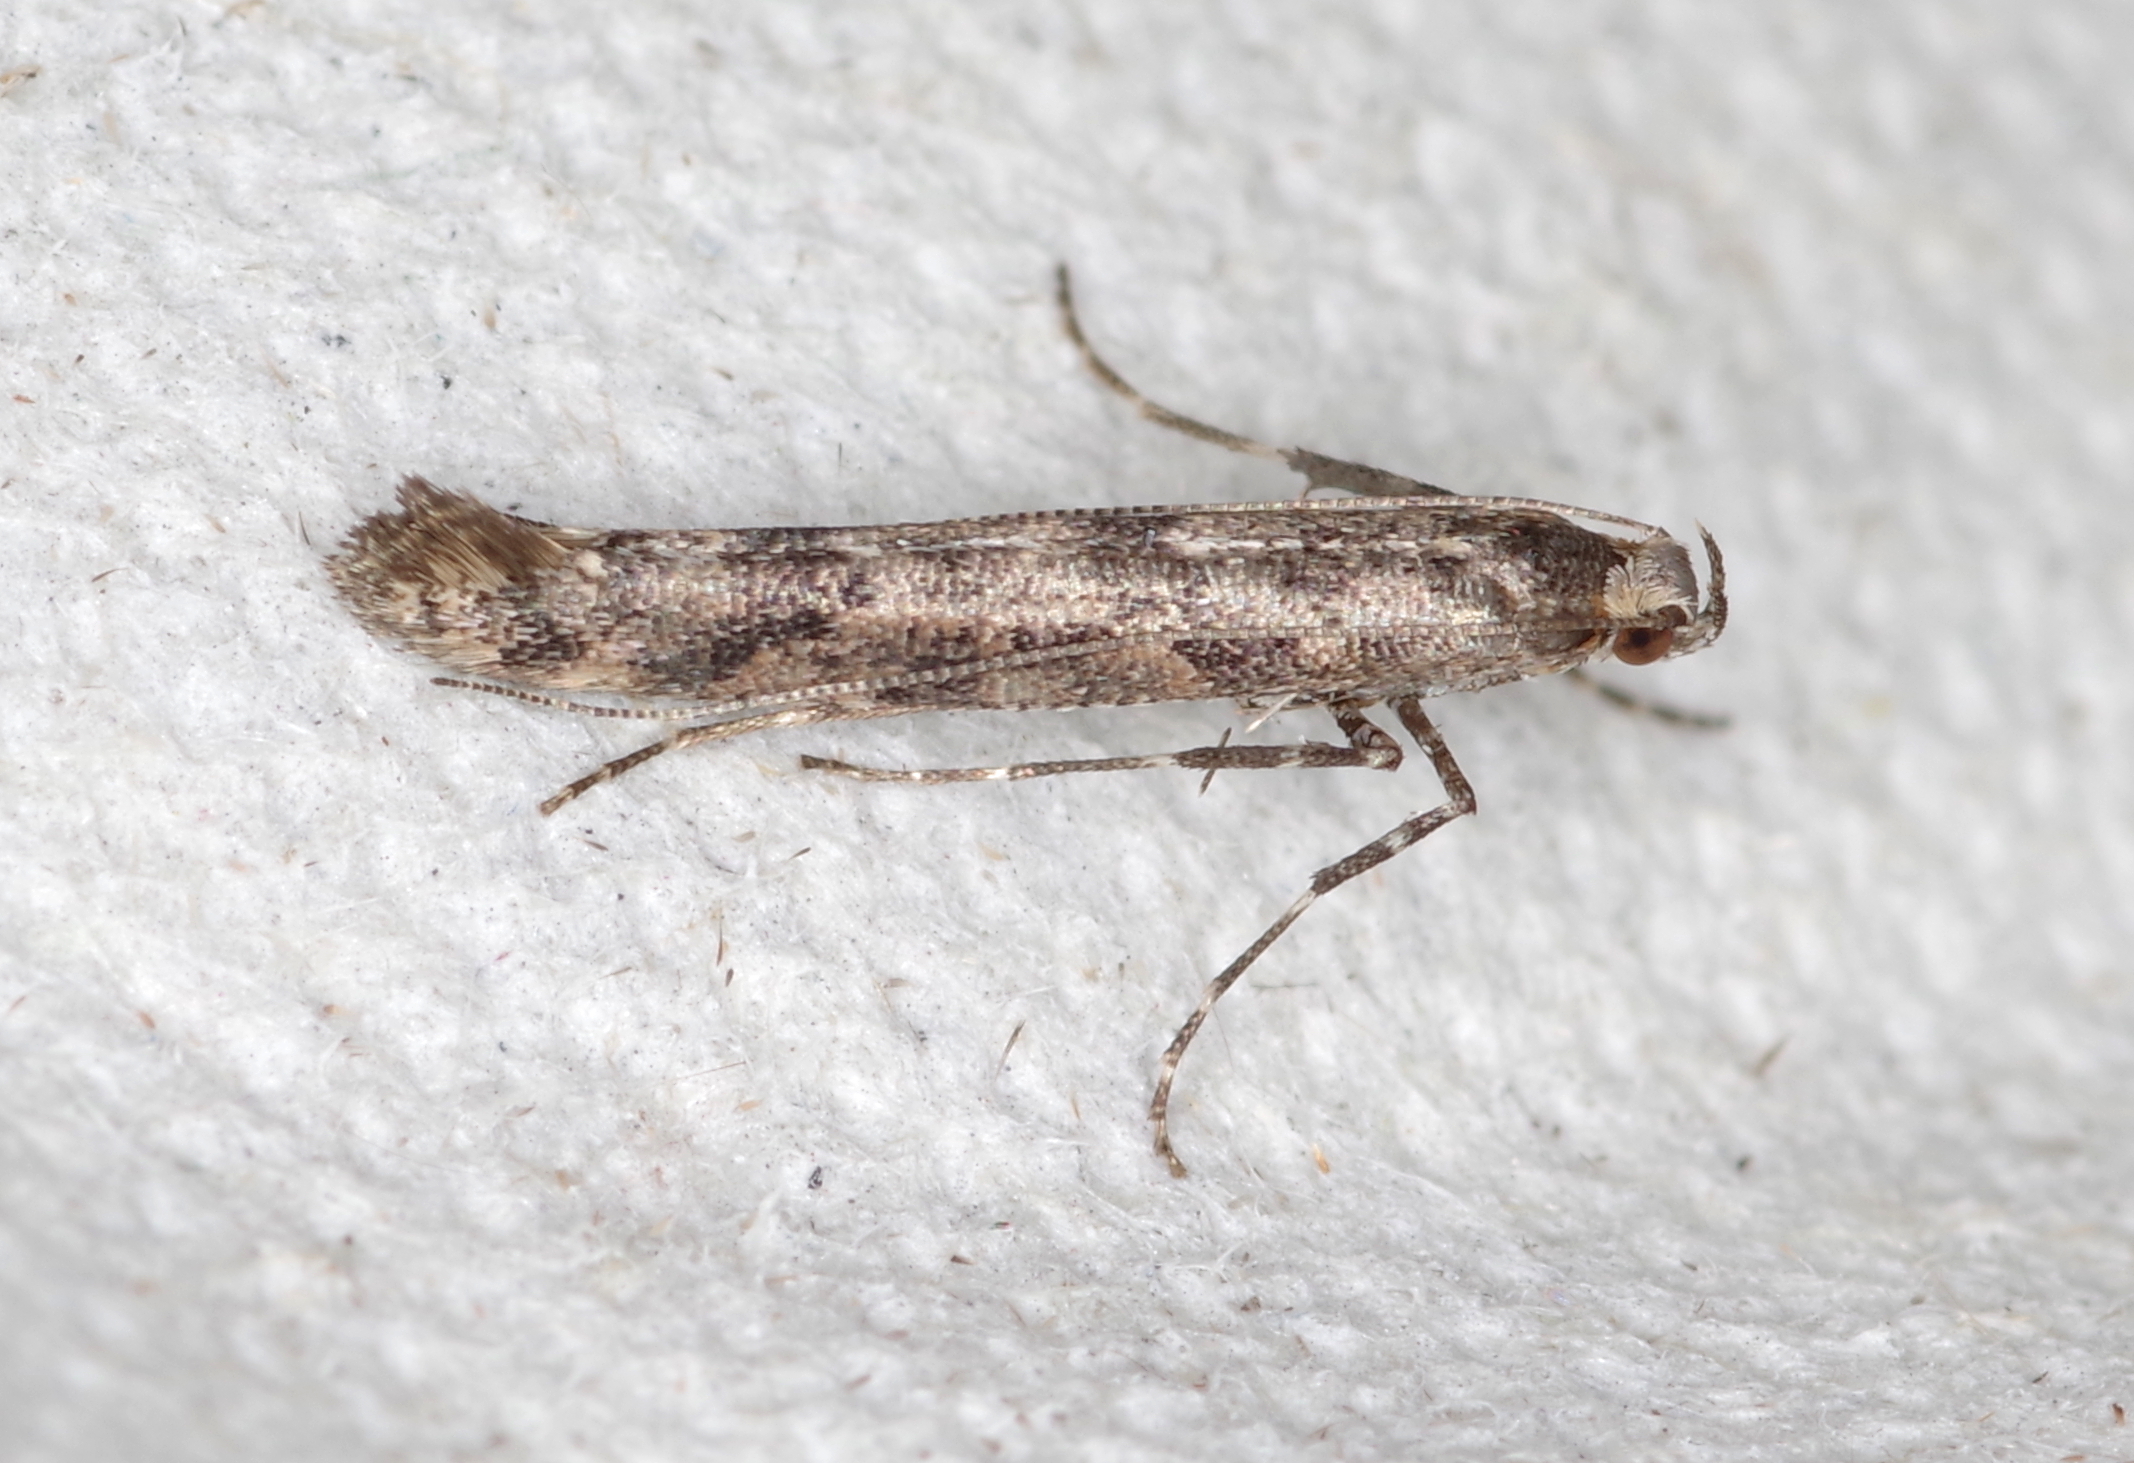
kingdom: Animalia
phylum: Arthropoda
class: Insecta
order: Lepidoptera
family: Gracillariidae
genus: Caloptilia
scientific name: Caloptilia suberinella
